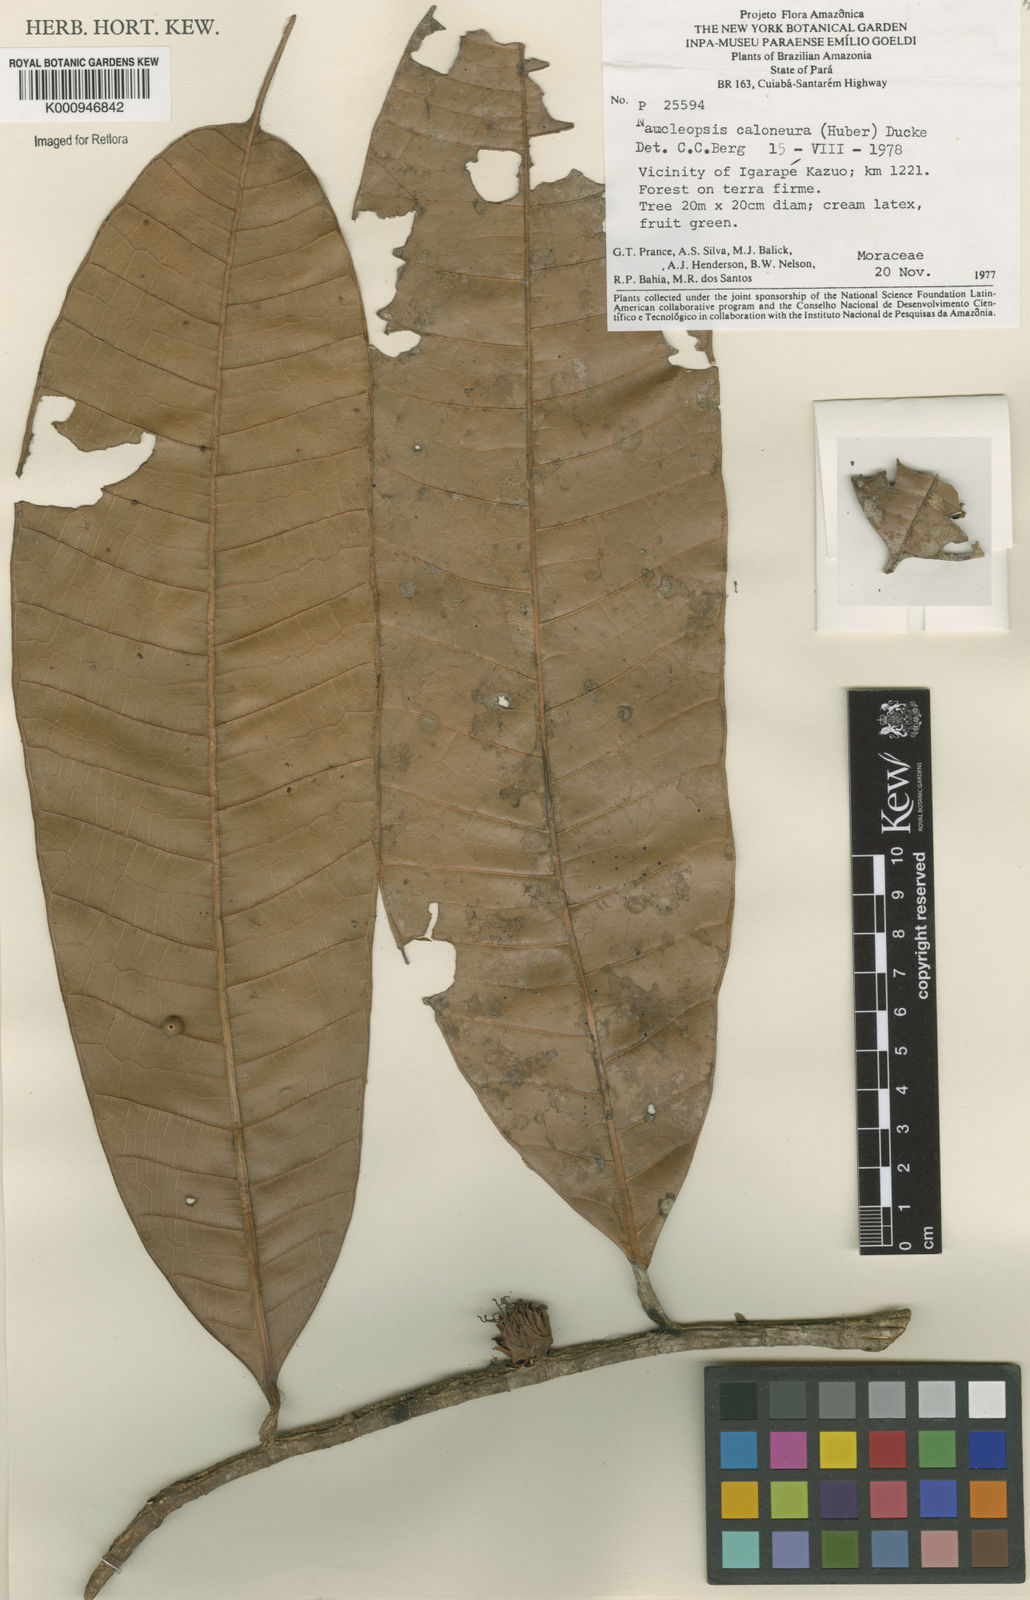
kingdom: Plantae
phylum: Tracheophyta
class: Magnoliopsida
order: Rosales
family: Moraceae
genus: Naucleopsis
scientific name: Naucleopsis caloneura
